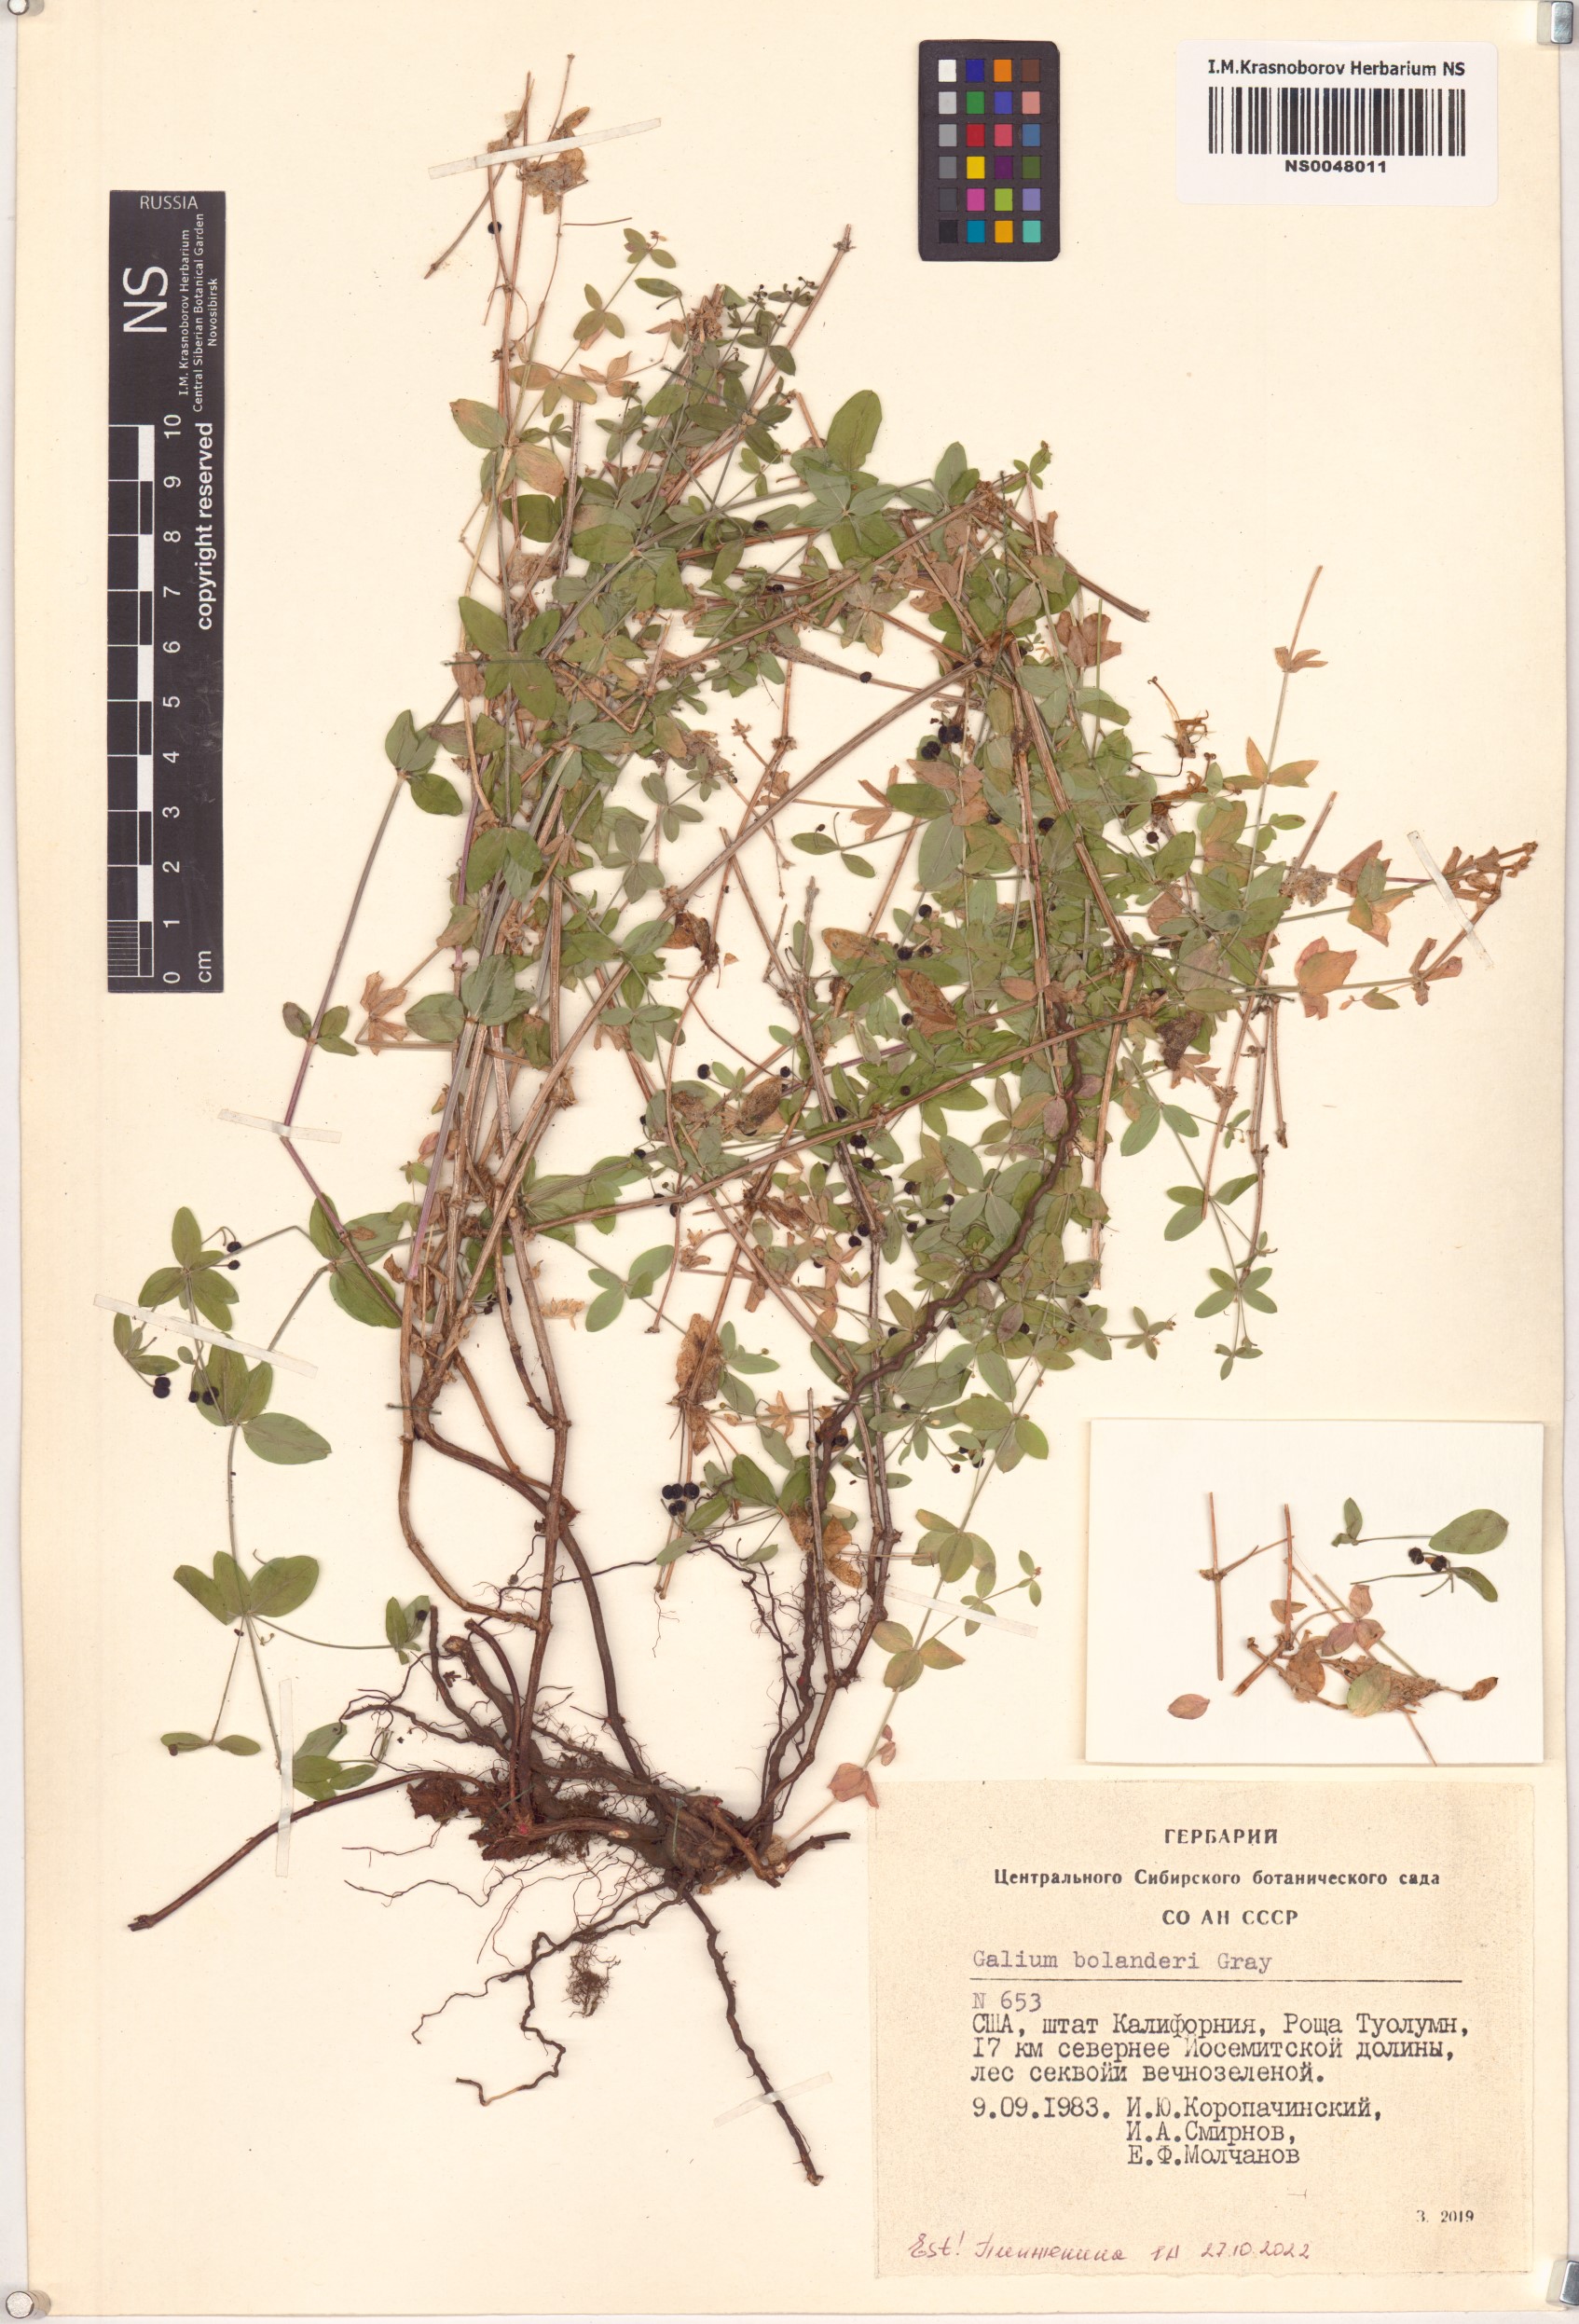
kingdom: Plantae
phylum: Tracheophyta
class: Magnoliopsida
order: Gentianales
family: Rubiaceae
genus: Galium
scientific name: Galium bolanderi
